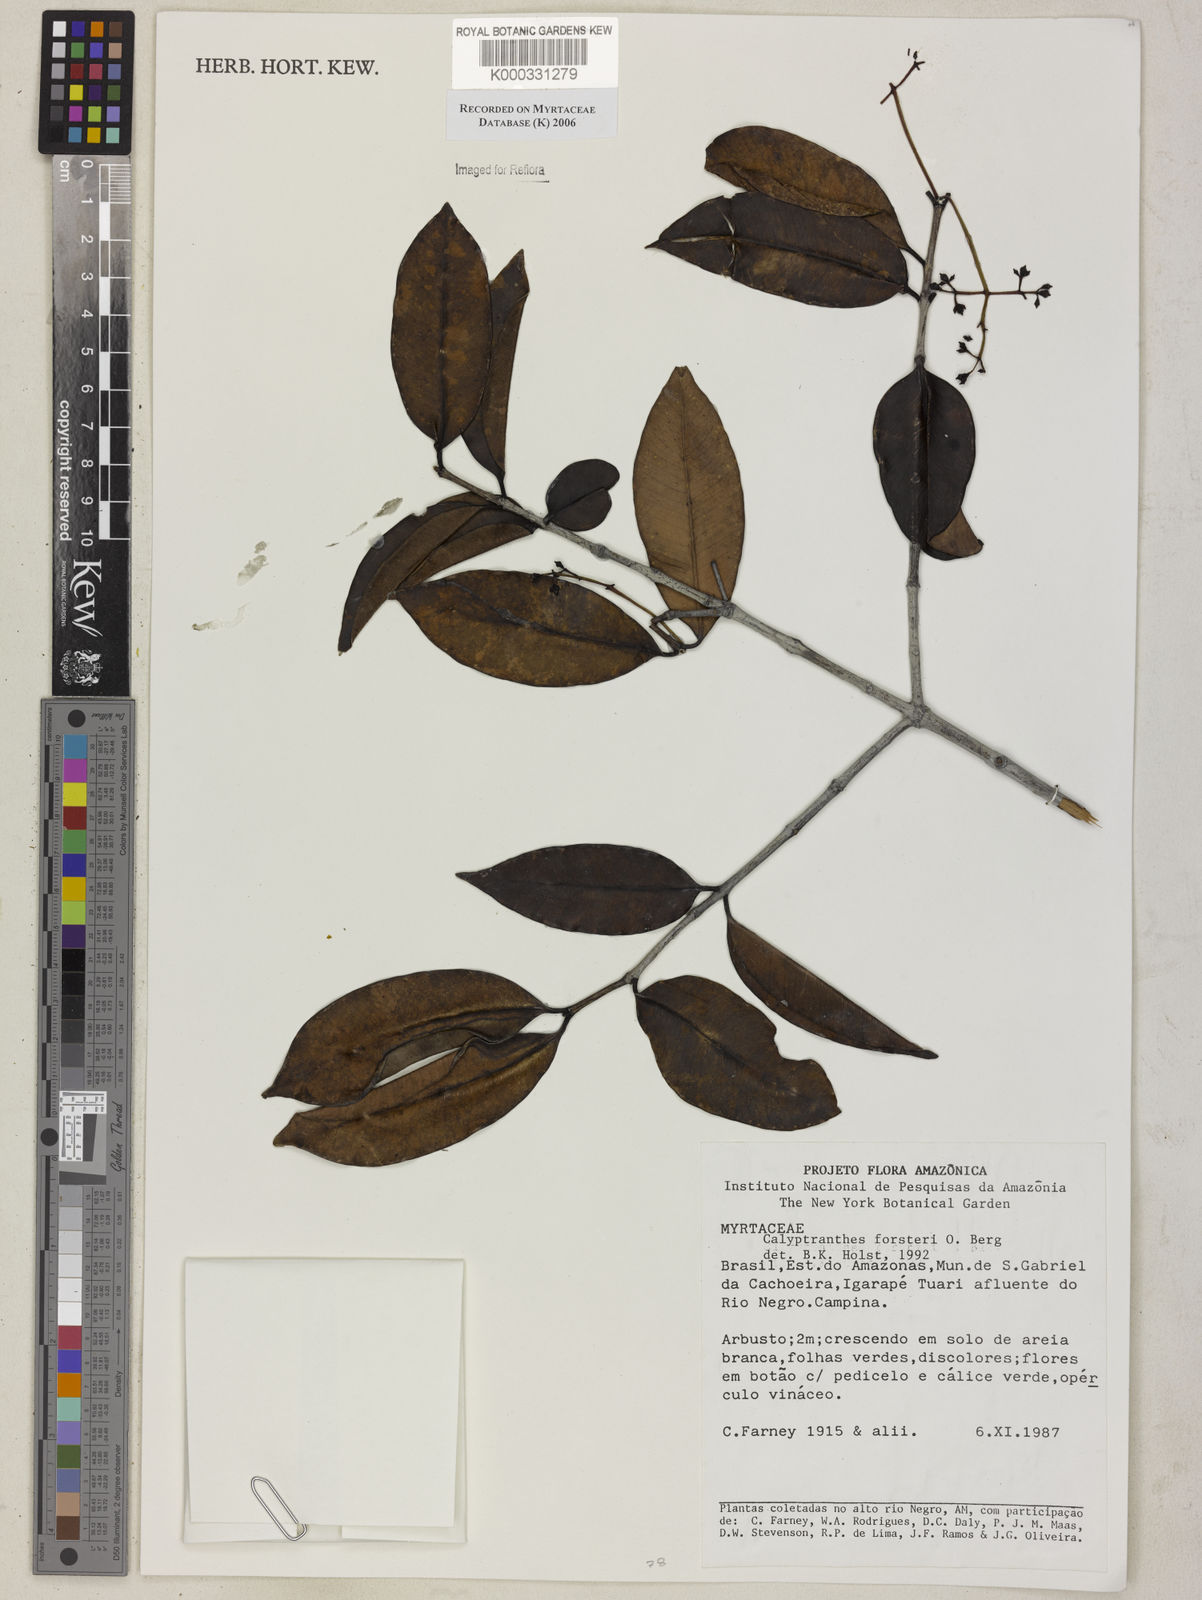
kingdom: Plantae
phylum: Tracheophyta
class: Magnoliopsida
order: Myrtales
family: Myrtaceae
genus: Calyptranthes
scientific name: Calyptranthes
